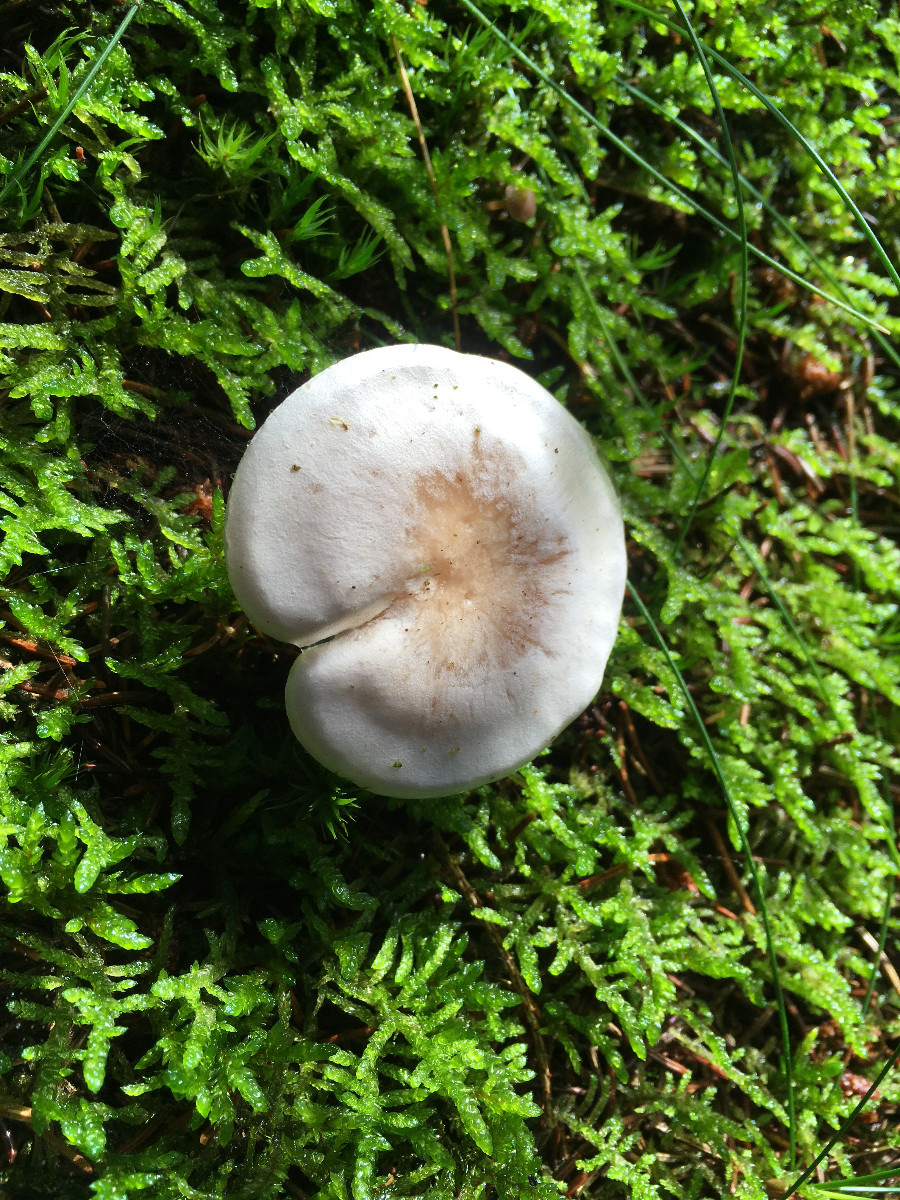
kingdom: Fungi
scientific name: Fungi
